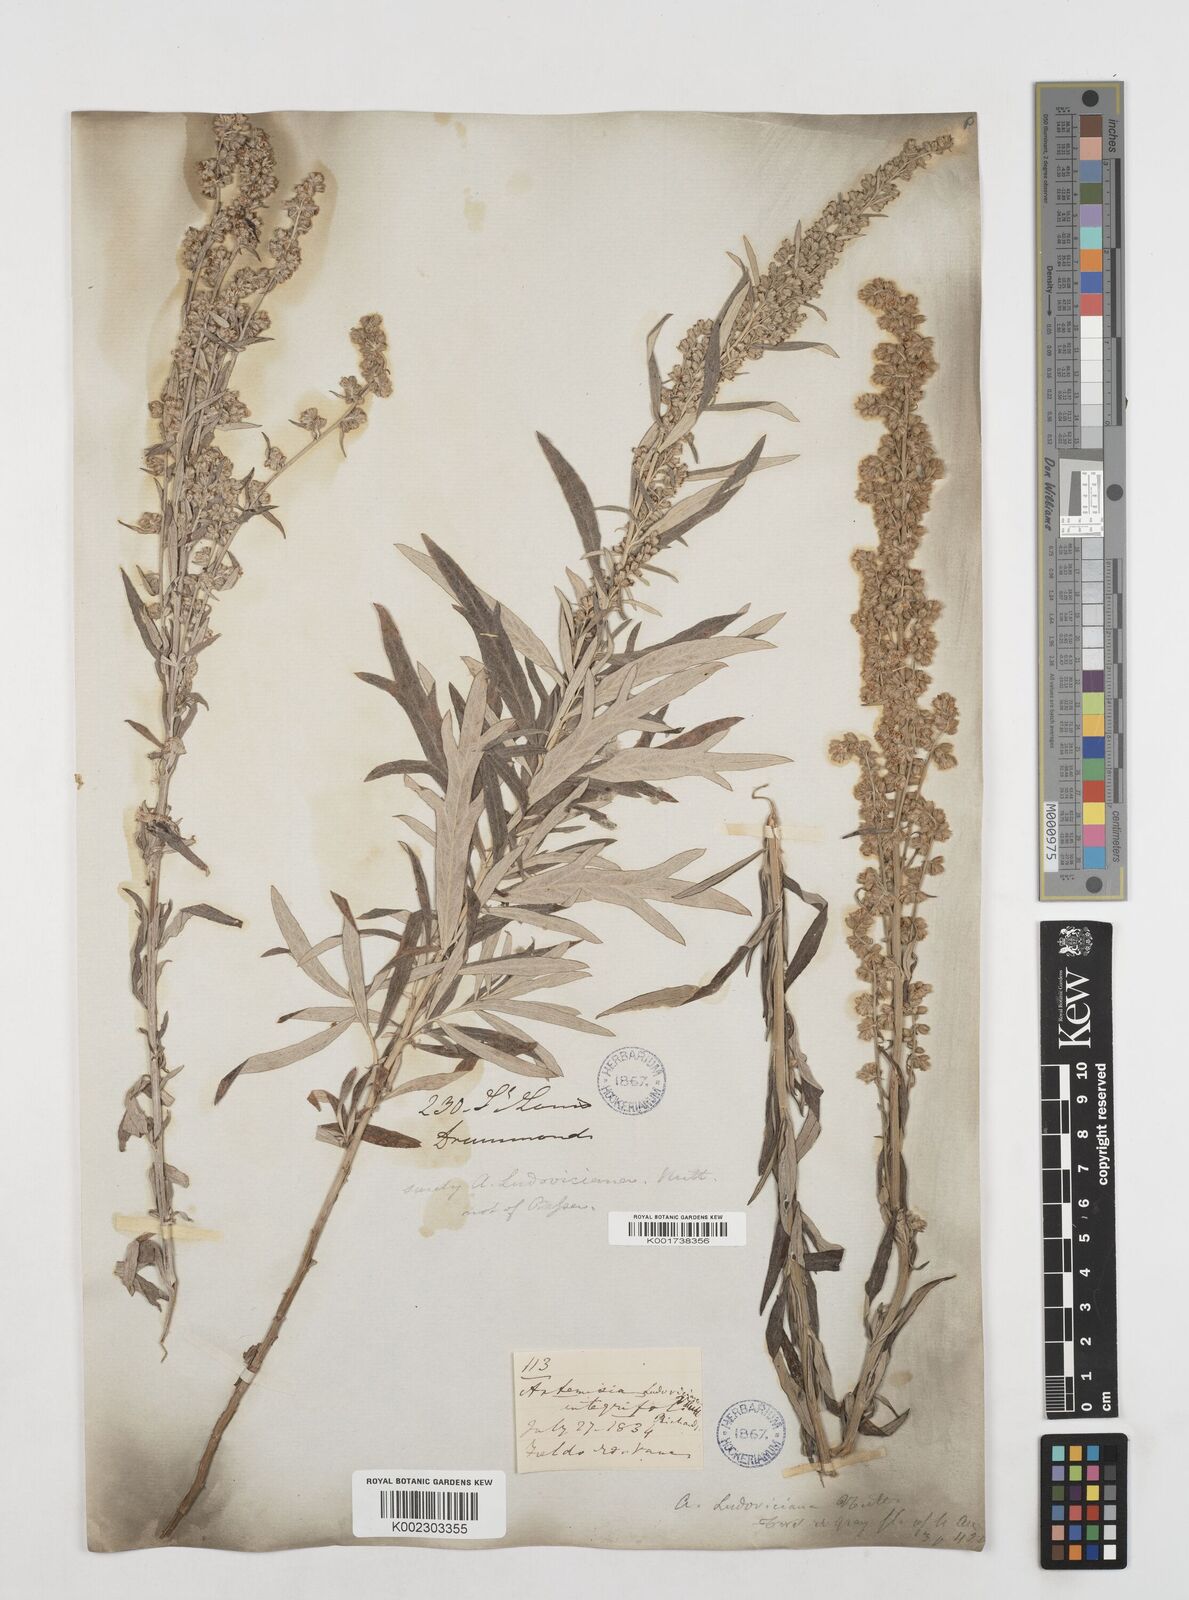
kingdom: Plantae
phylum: Tracheophyta
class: Magnoliopsida
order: Asterales
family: Asteraceae
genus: Artemisia
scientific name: Artemisia
